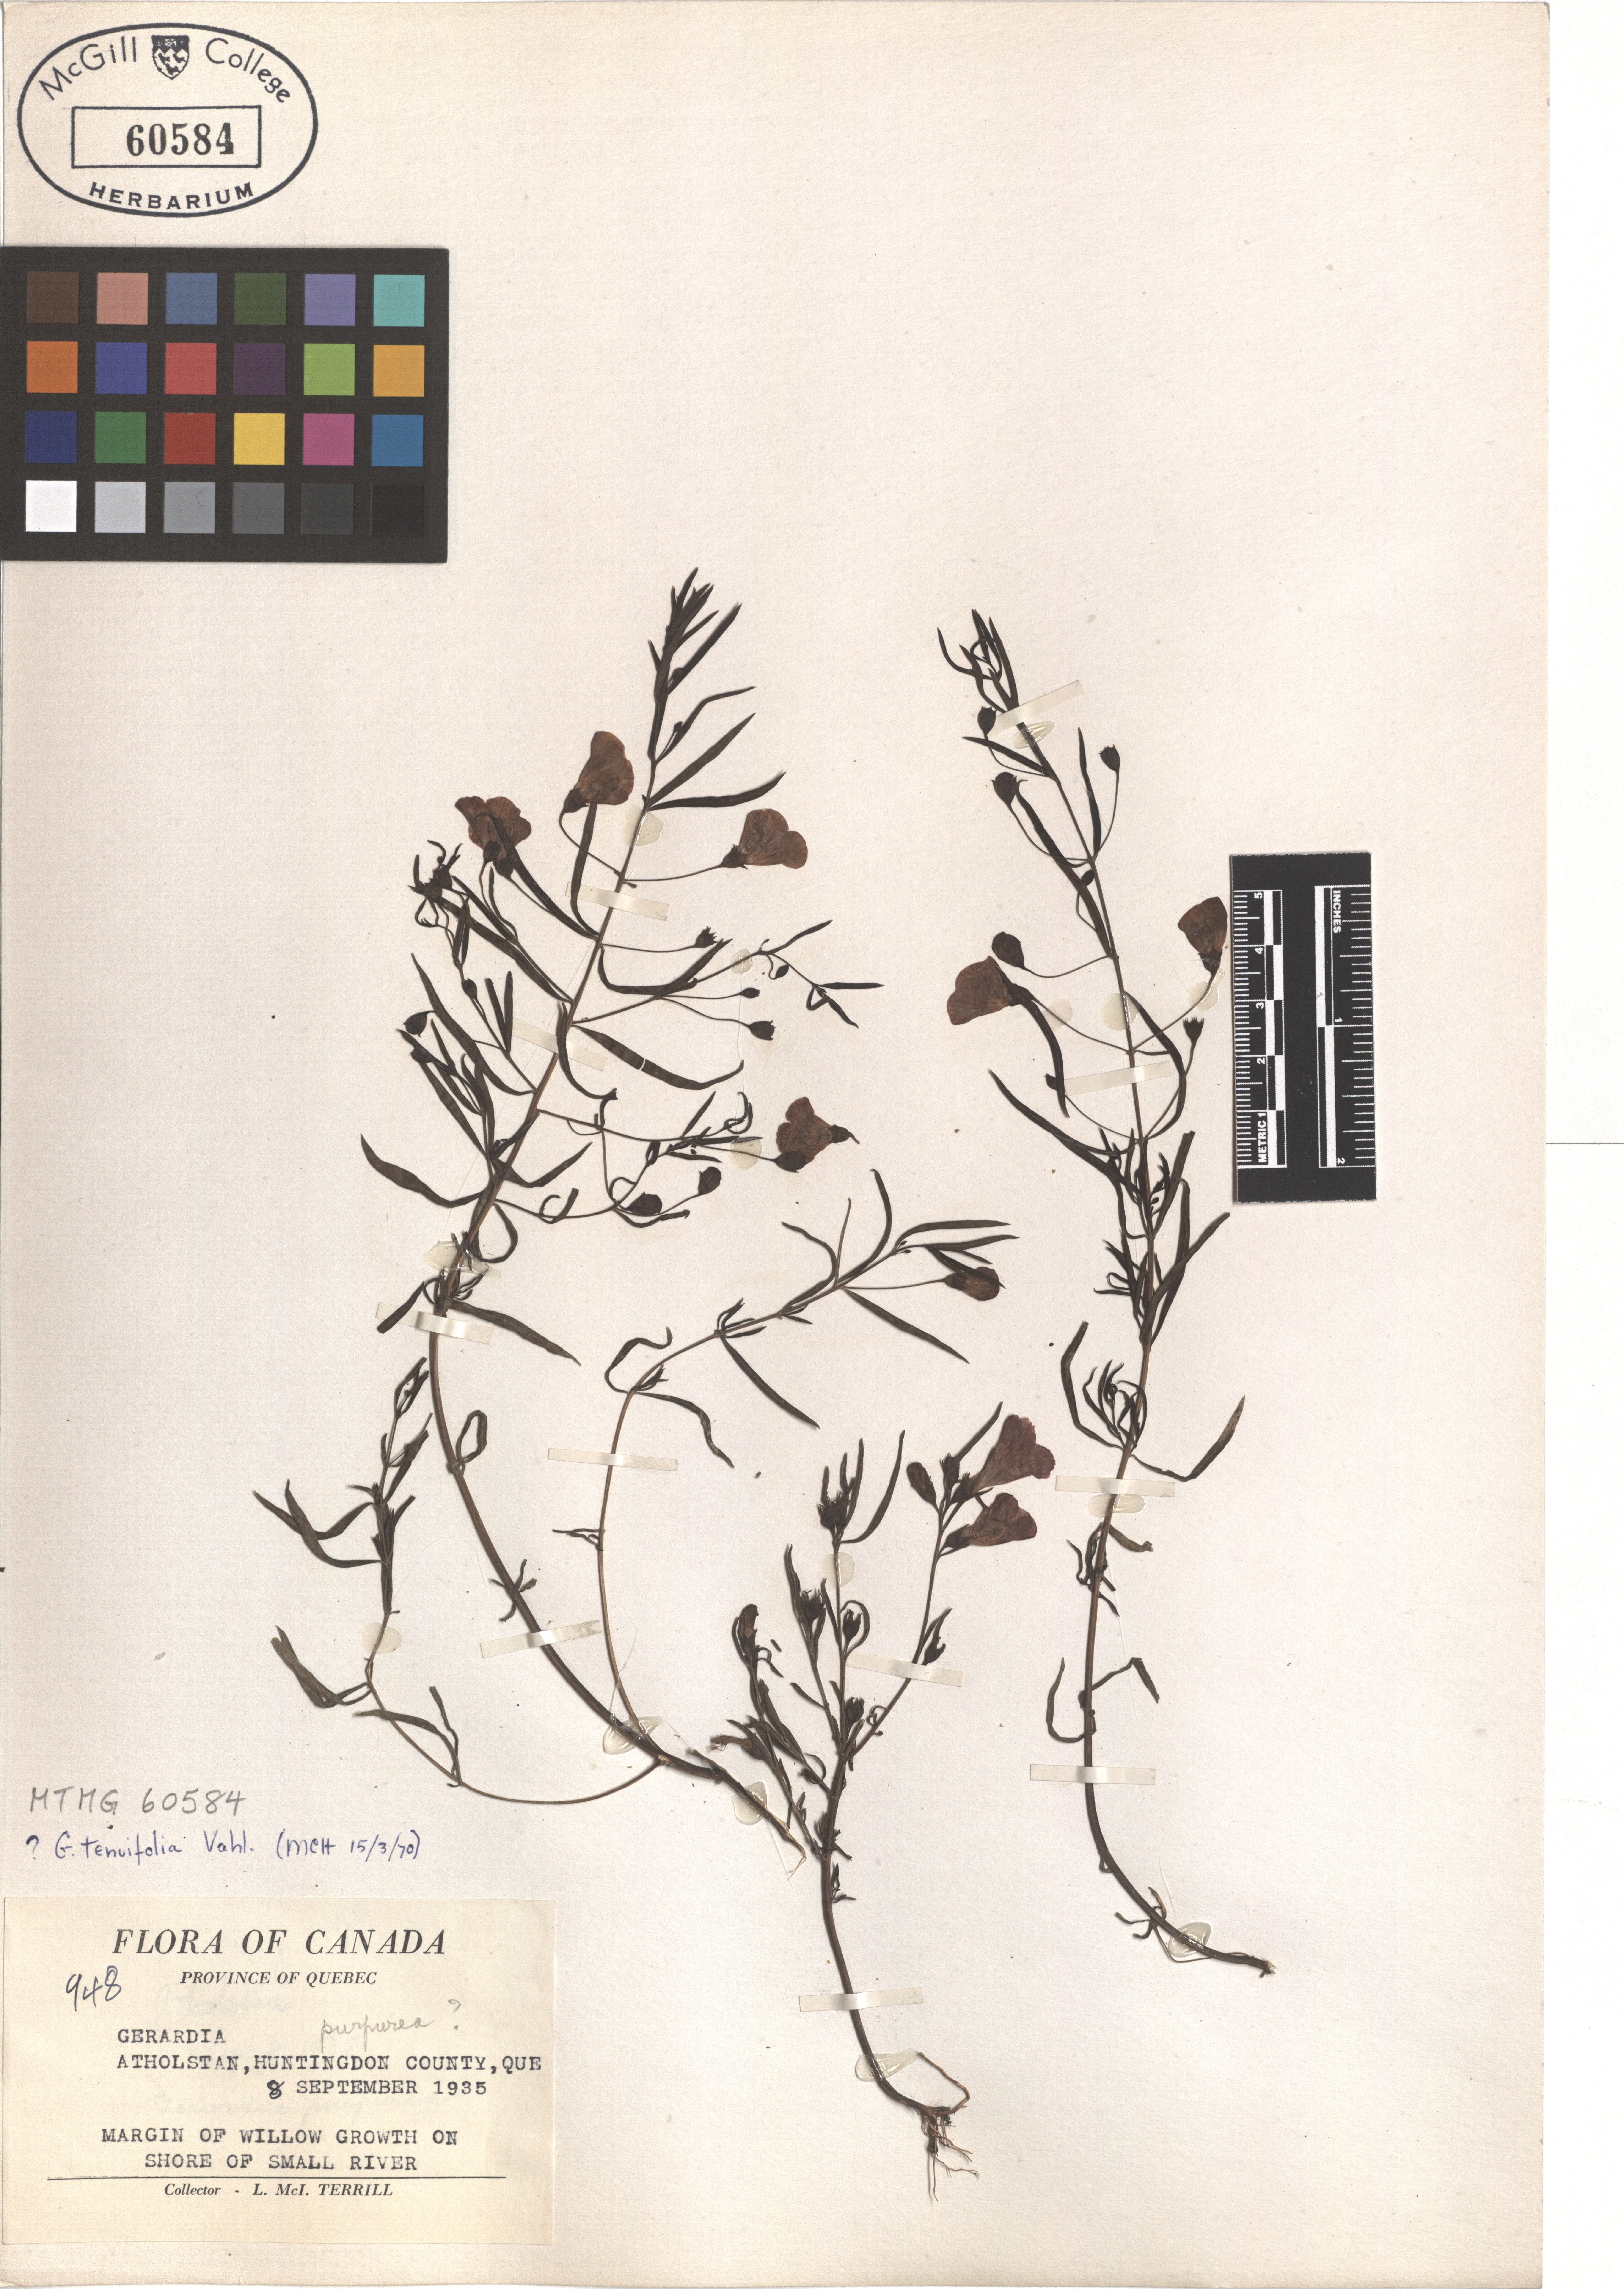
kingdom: Plantae
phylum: Tracheophyta
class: Magnoliopsida
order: Lamiales
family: Orobanchaceae
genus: Agalinis
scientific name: Agalinis tenuifolia
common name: Slender agalinis
